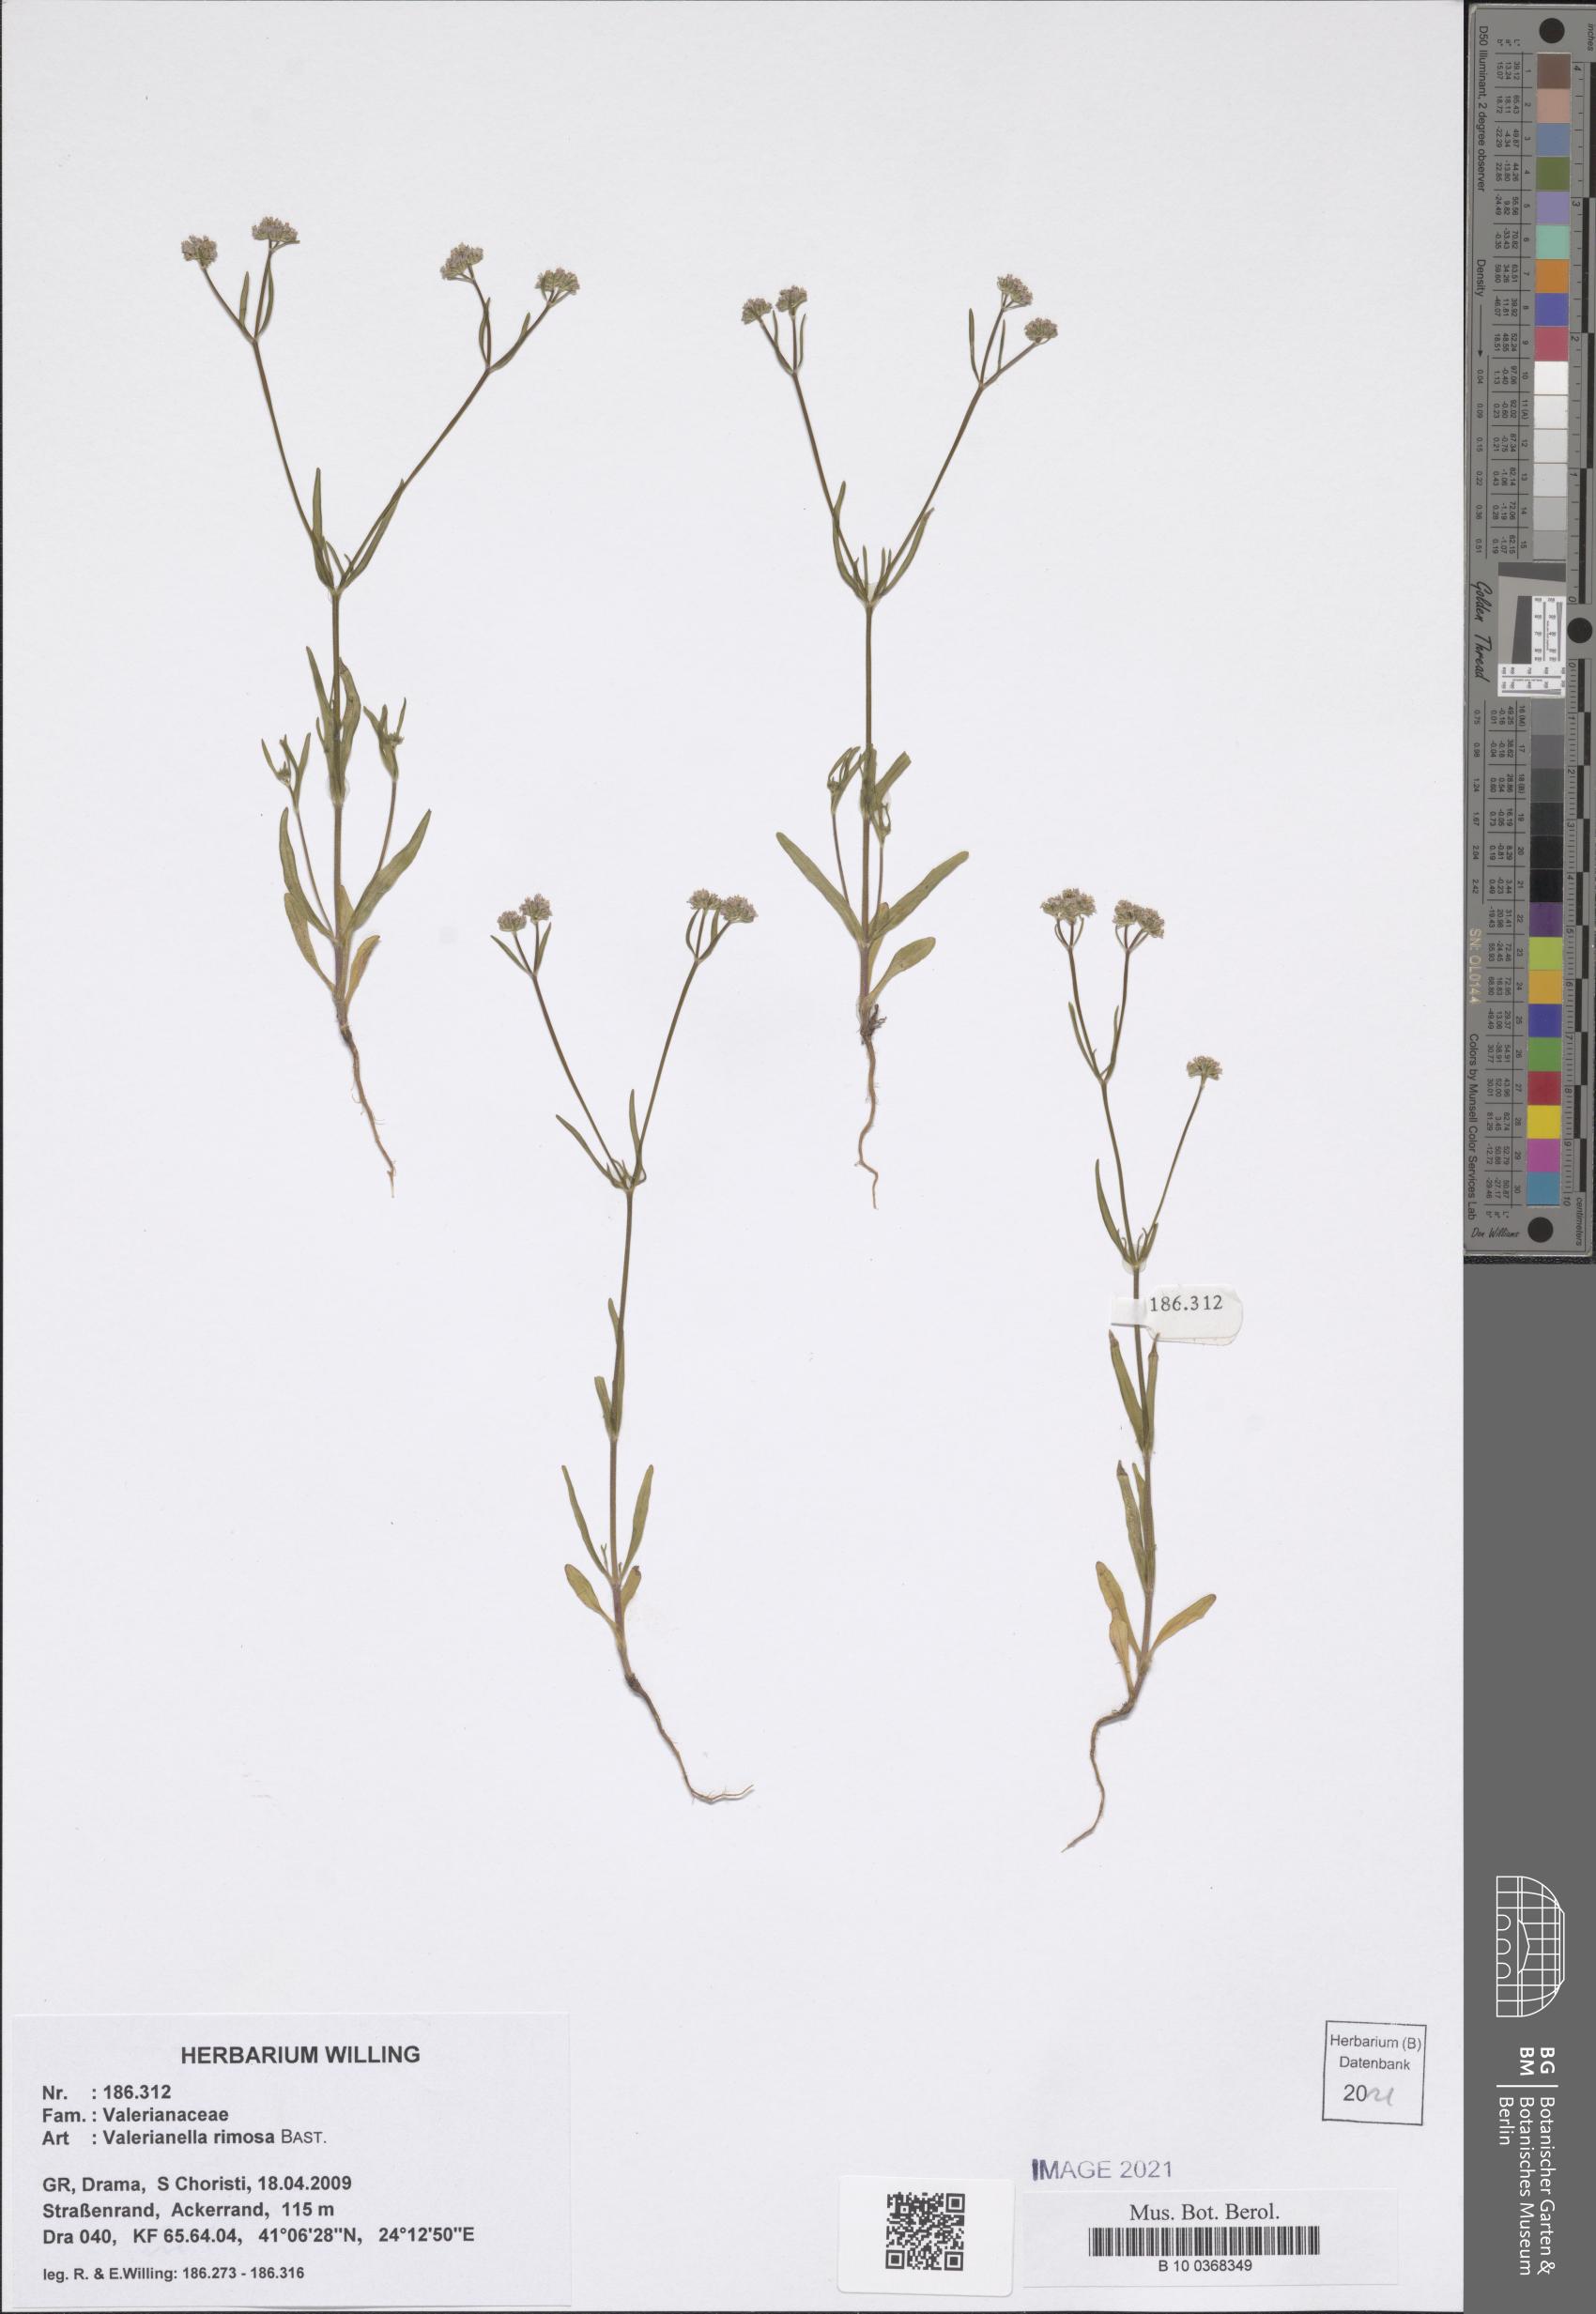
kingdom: Plantae
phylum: Tracheophyta
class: Magnoliopsida
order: Dipsacales
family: Caprifoliaceae
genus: Valerianella
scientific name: Valerianella rimosa
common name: Broad-fruited cornsalad
